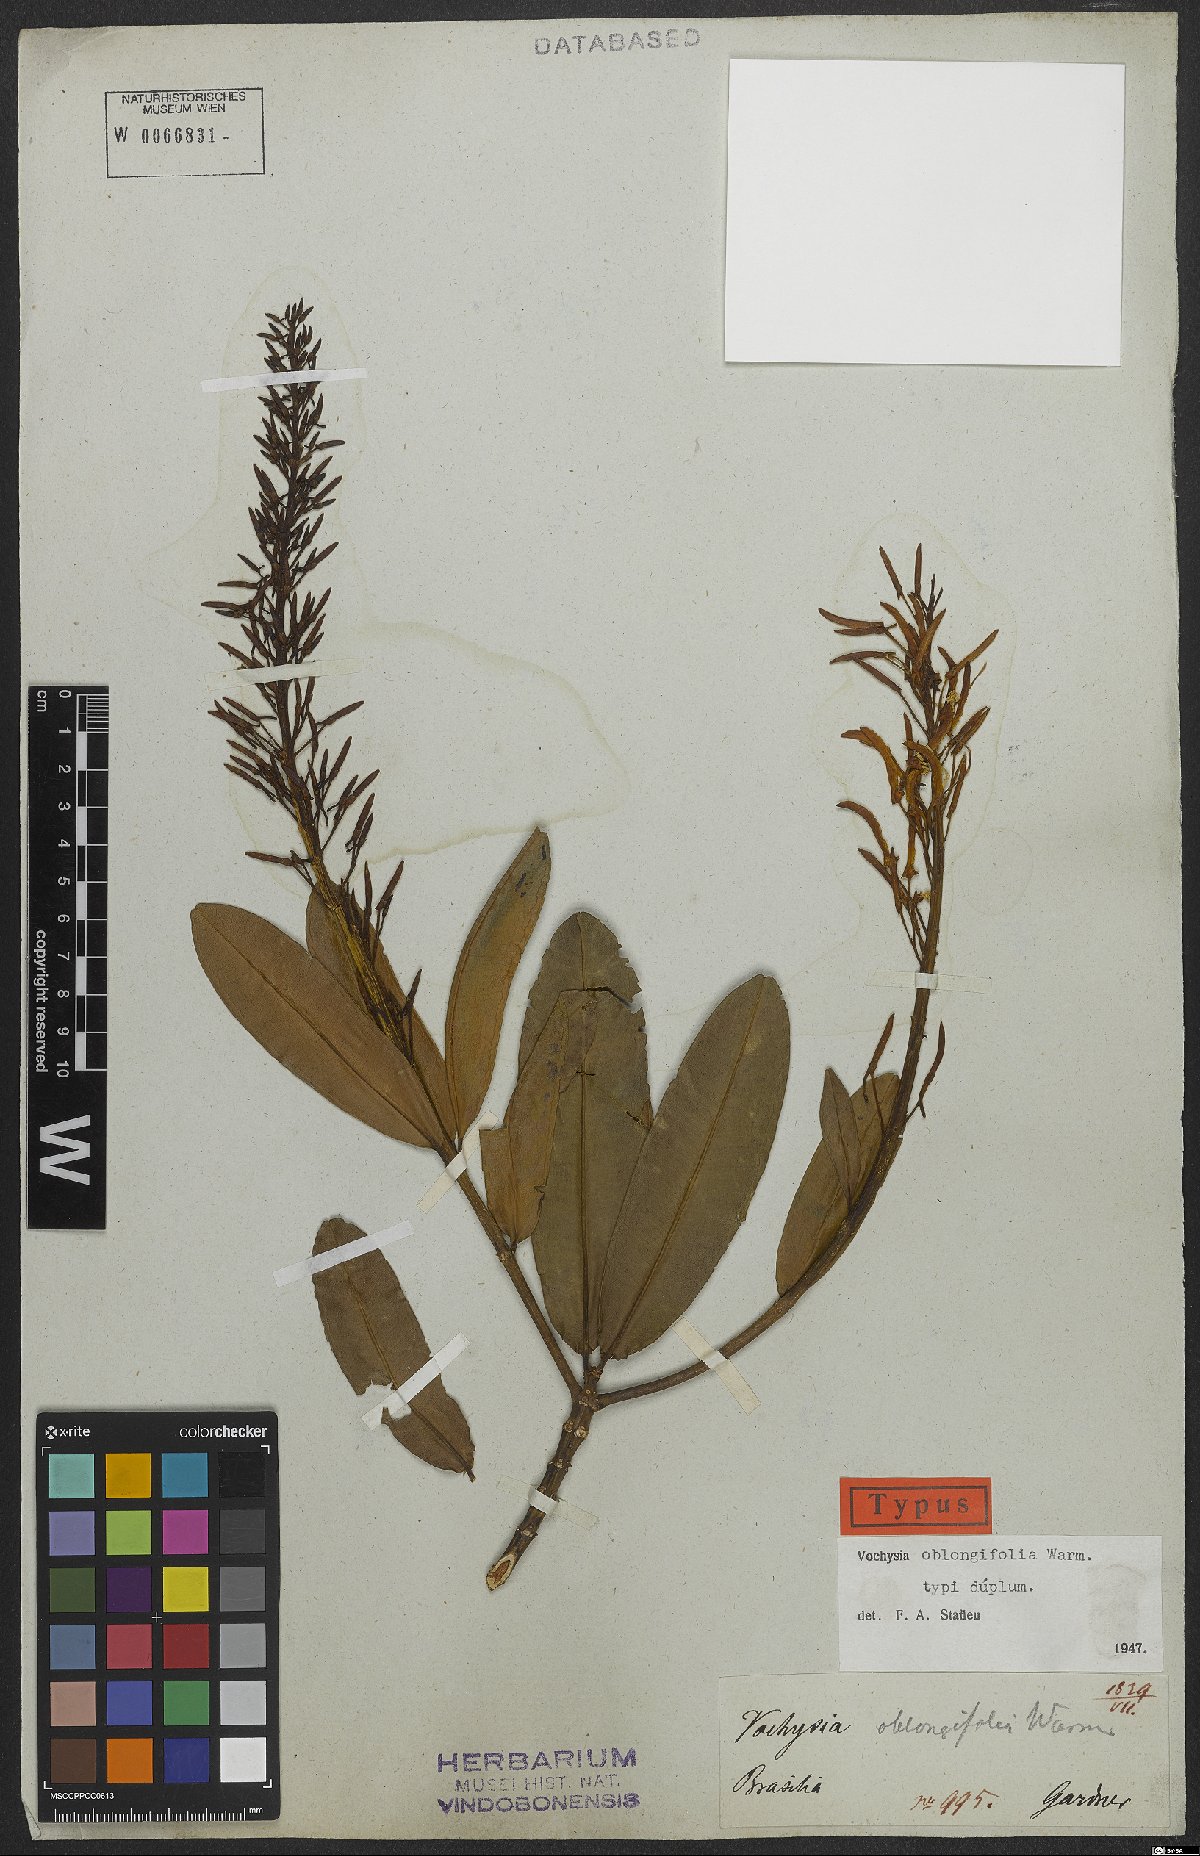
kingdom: Plantae
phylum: Tracheophyta
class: Magnoliopsida
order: Myrtales
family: Vochysiaceae
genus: Vochysia
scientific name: Vochysia oblongifolia
